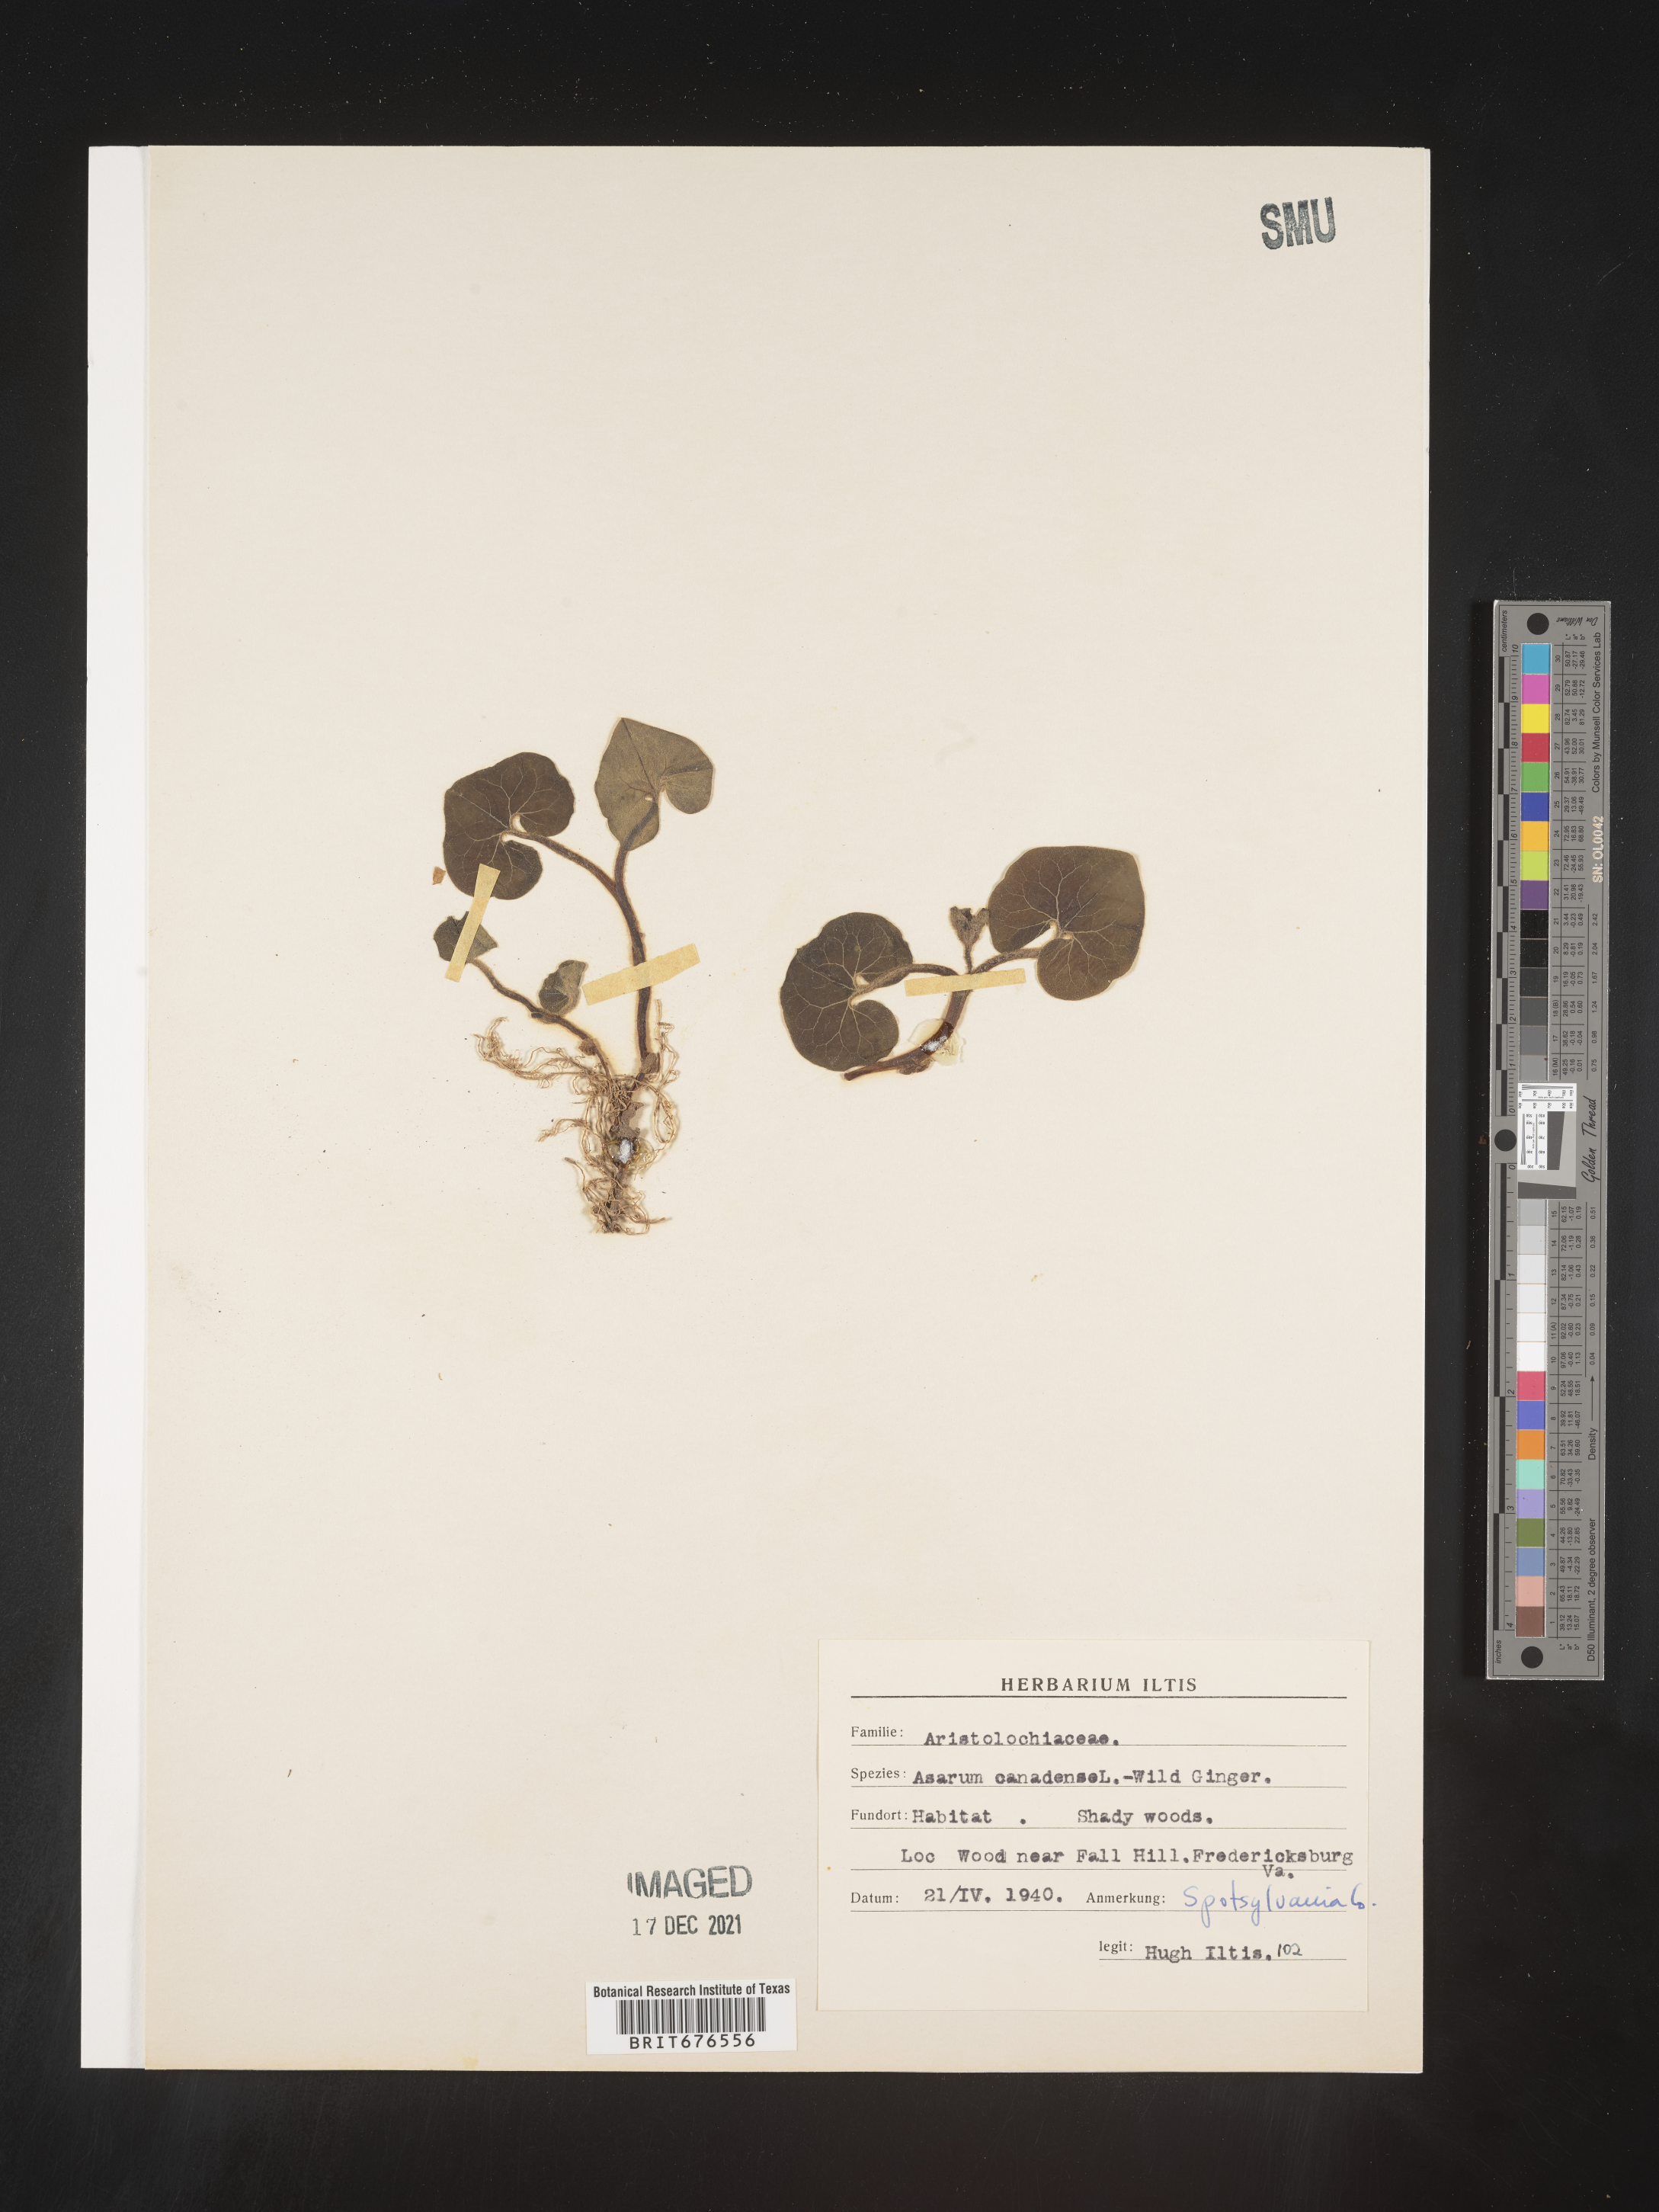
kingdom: Plantae
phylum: Tracheophyta
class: Magnoliopsida
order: Piperales
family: Aristolochiaceae
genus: Asarum
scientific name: Asarum canadense
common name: Wild ginger
